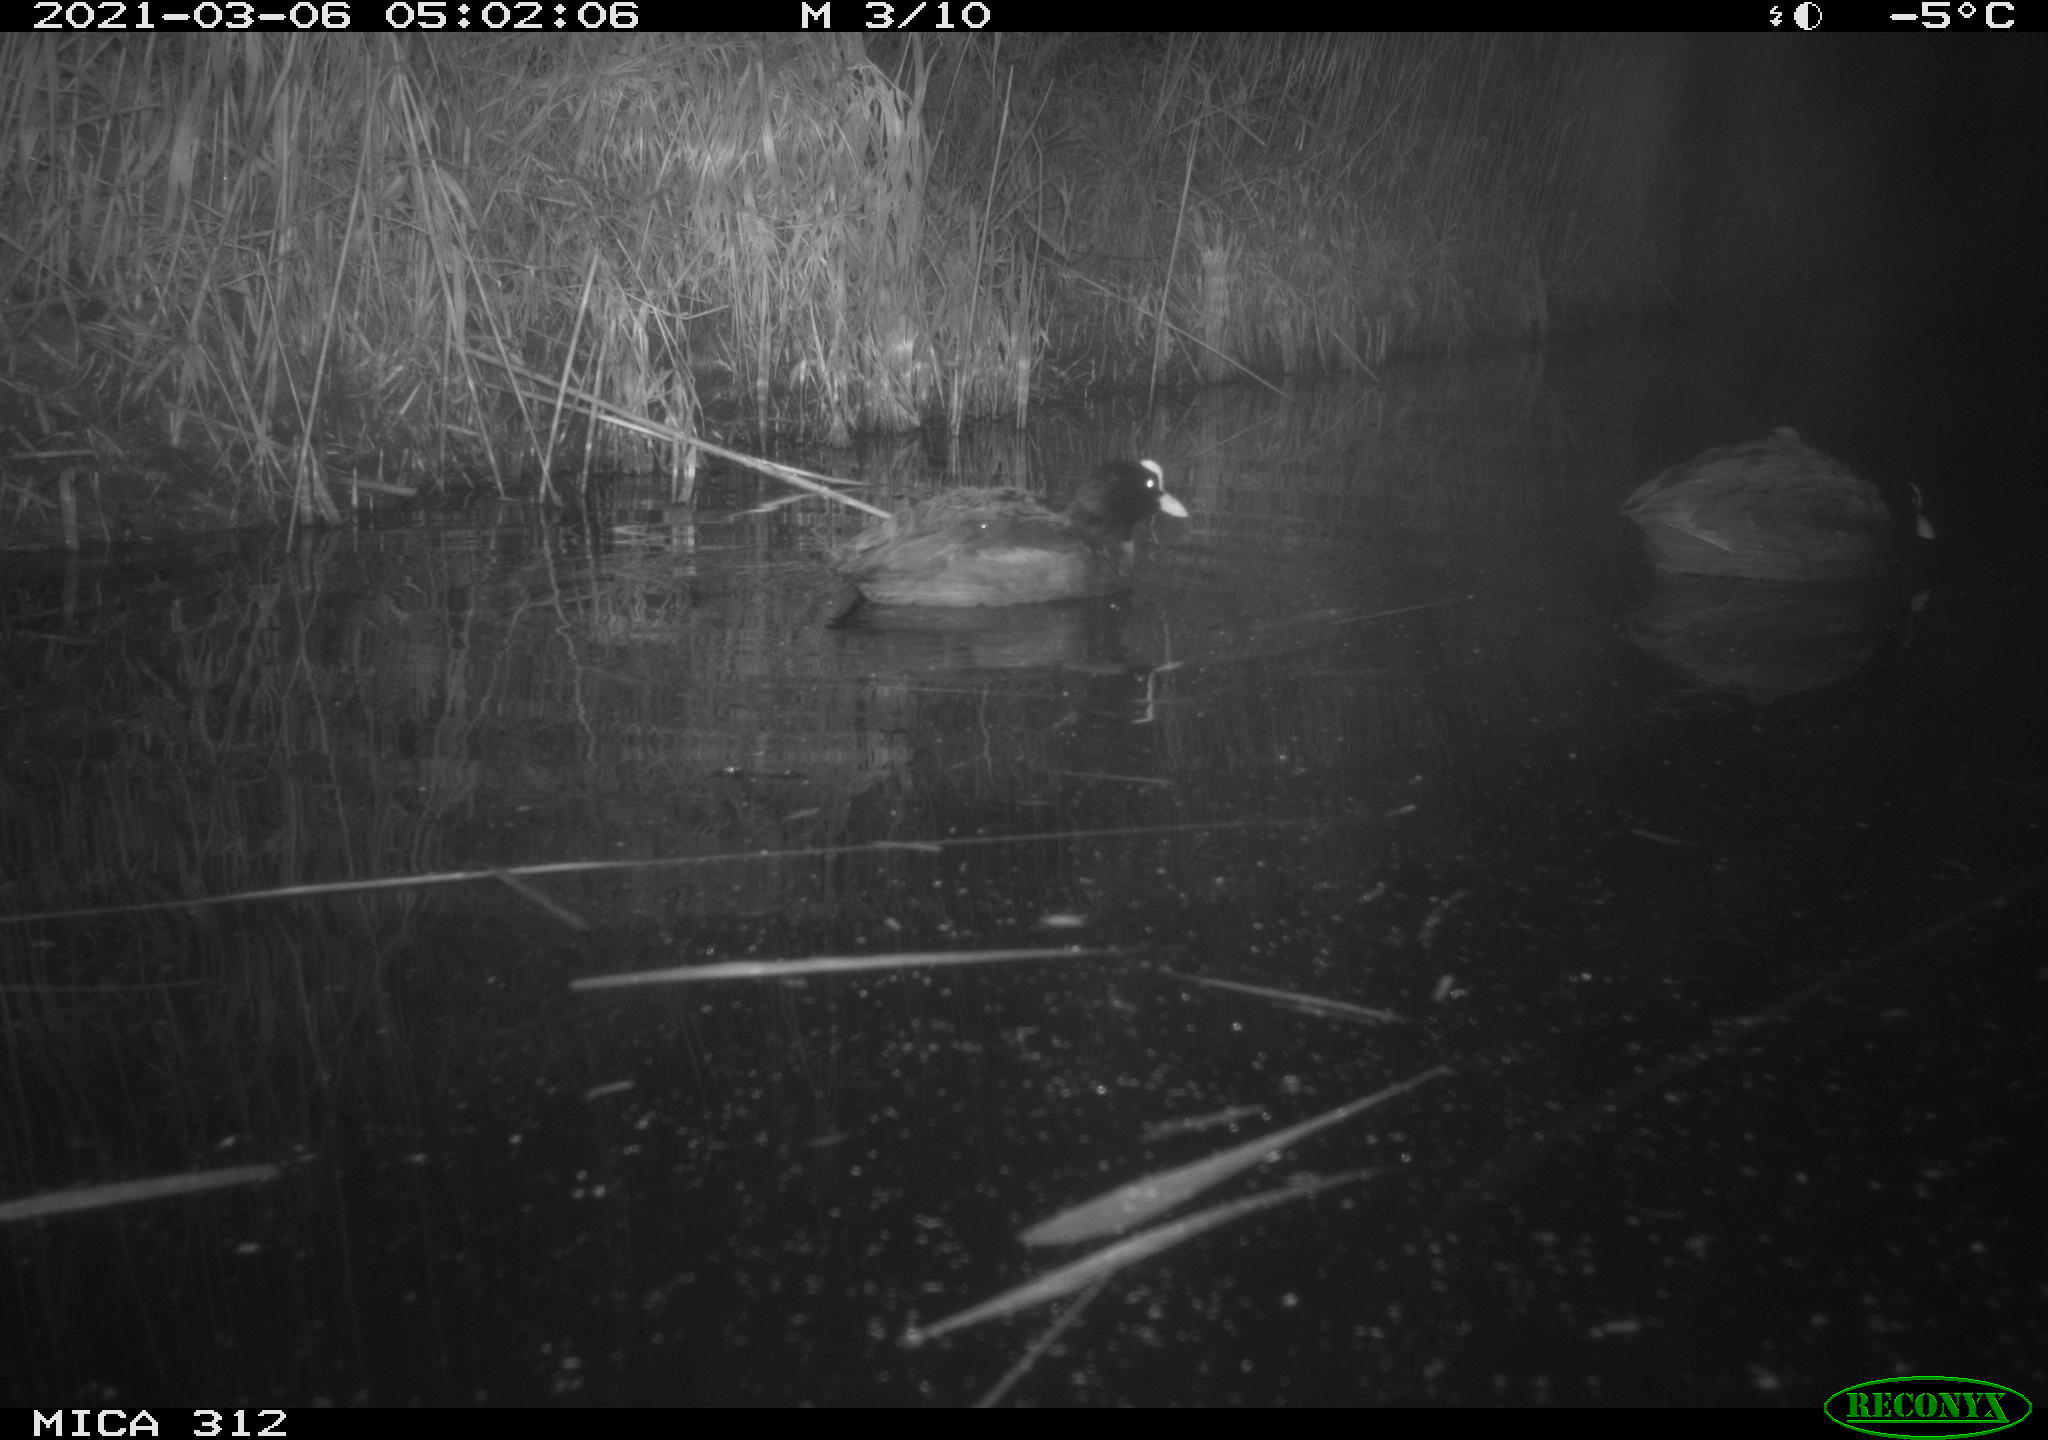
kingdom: Animalia
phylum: Chordata
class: Aves
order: Gruiformes
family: Rallidae
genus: Fulica
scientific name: Fulica atra
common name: Eurasian coot
